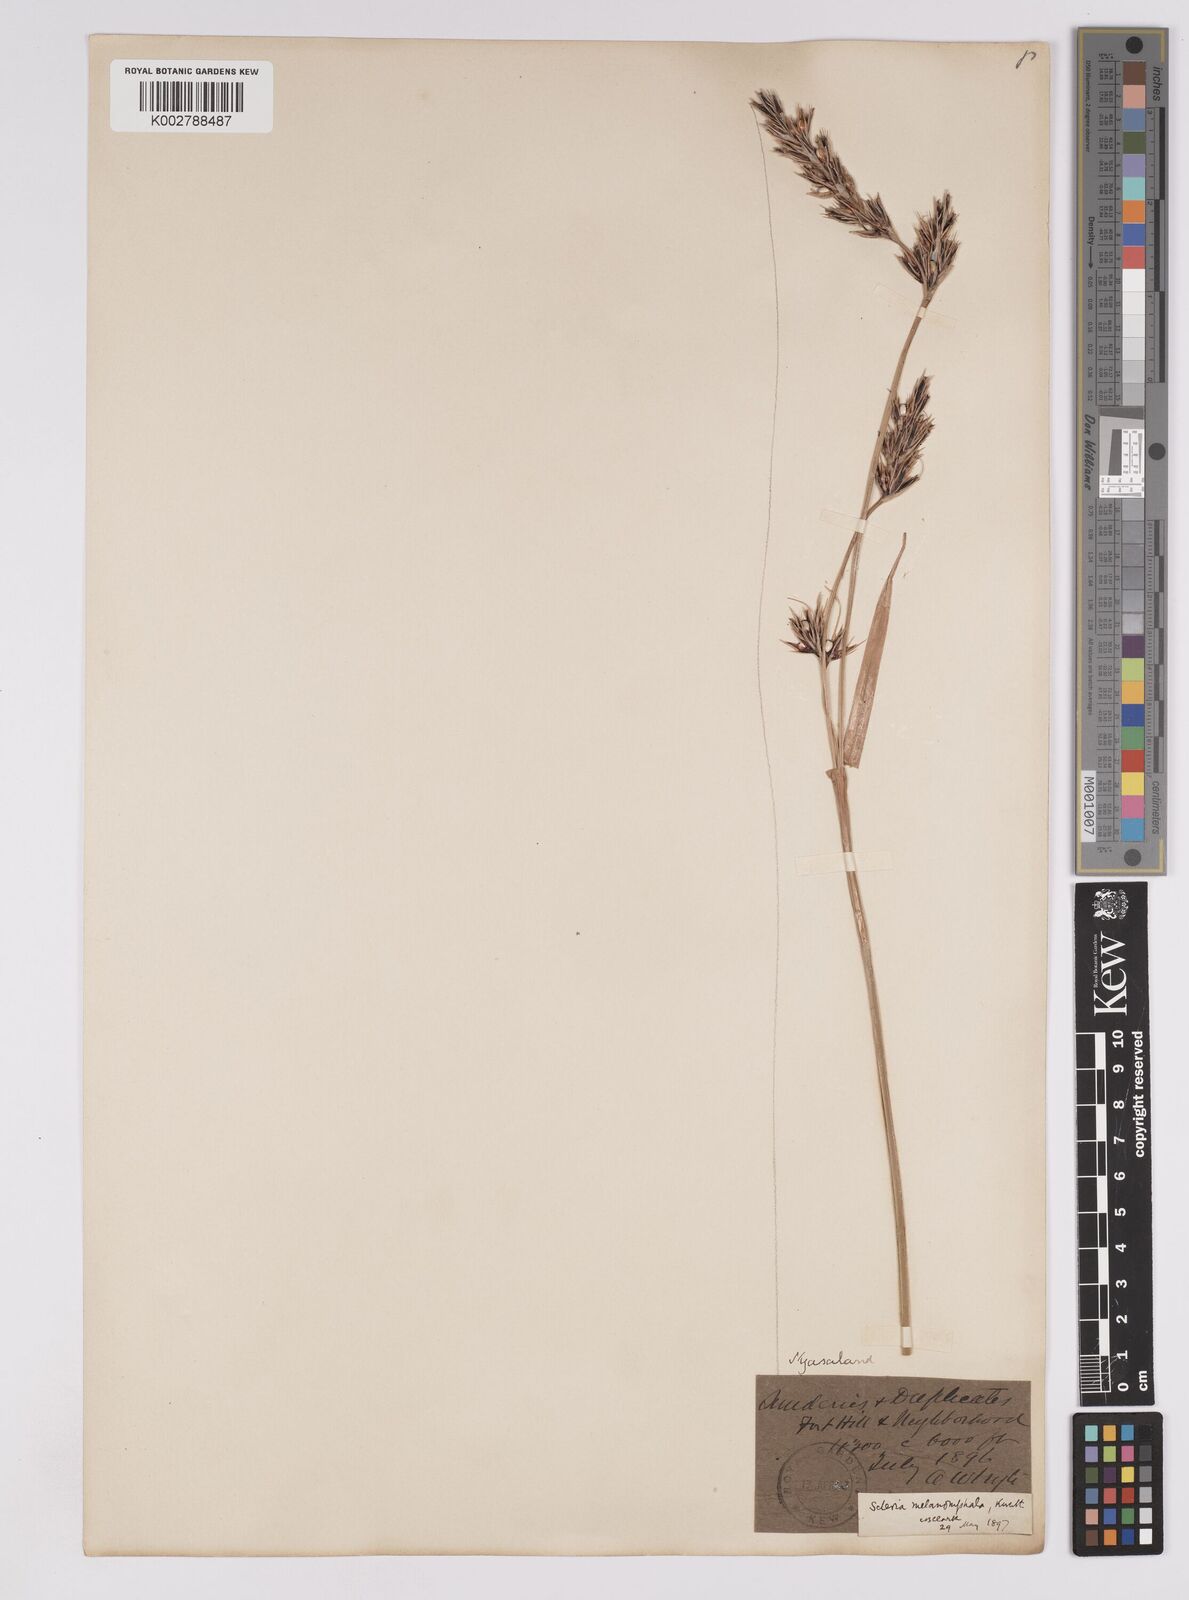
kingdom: Plantae
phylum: Tracheophyta
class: Liliopsida
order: Poales
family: Cyperaceae
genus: Scleria
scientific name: Scleria melanomphala
